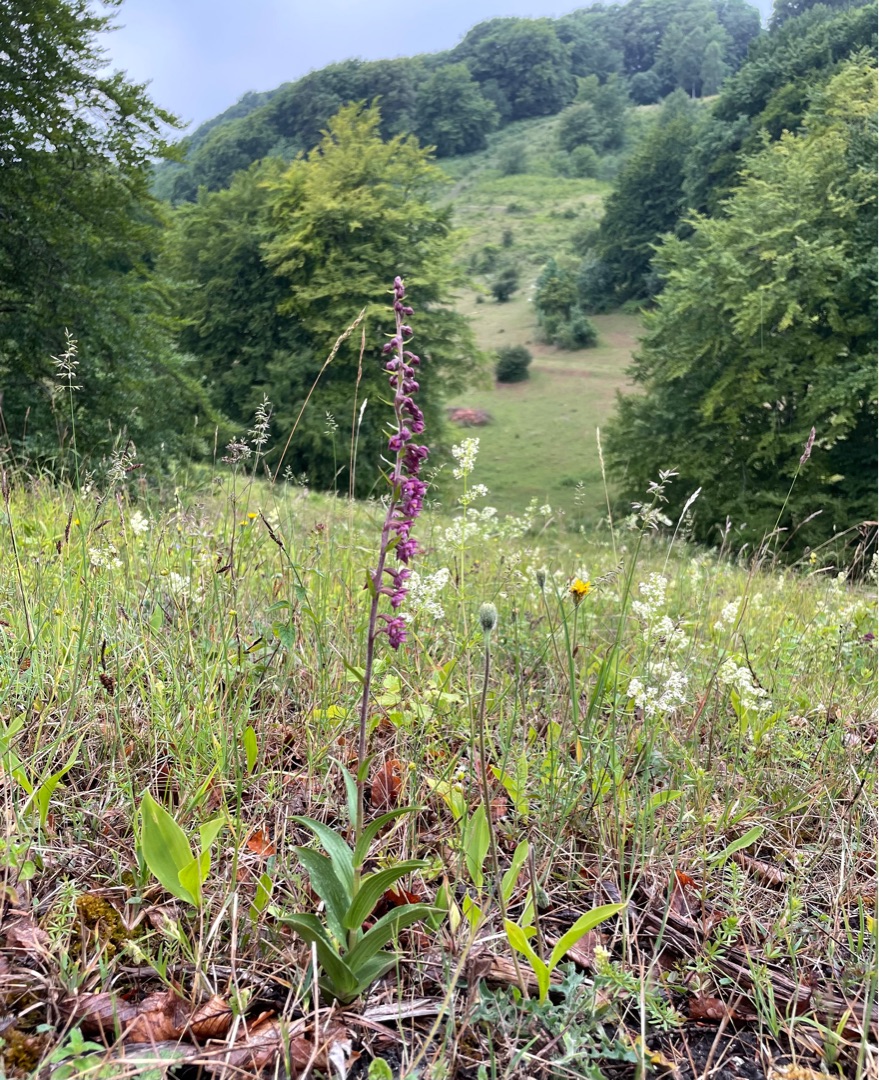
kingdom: Plantae
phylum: Tracheophyta
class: Liliopsida
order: Asparagales
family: Orchidaceae
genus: Epipactis
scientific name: Epipactis atrorubens
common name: Rød hullæbe
